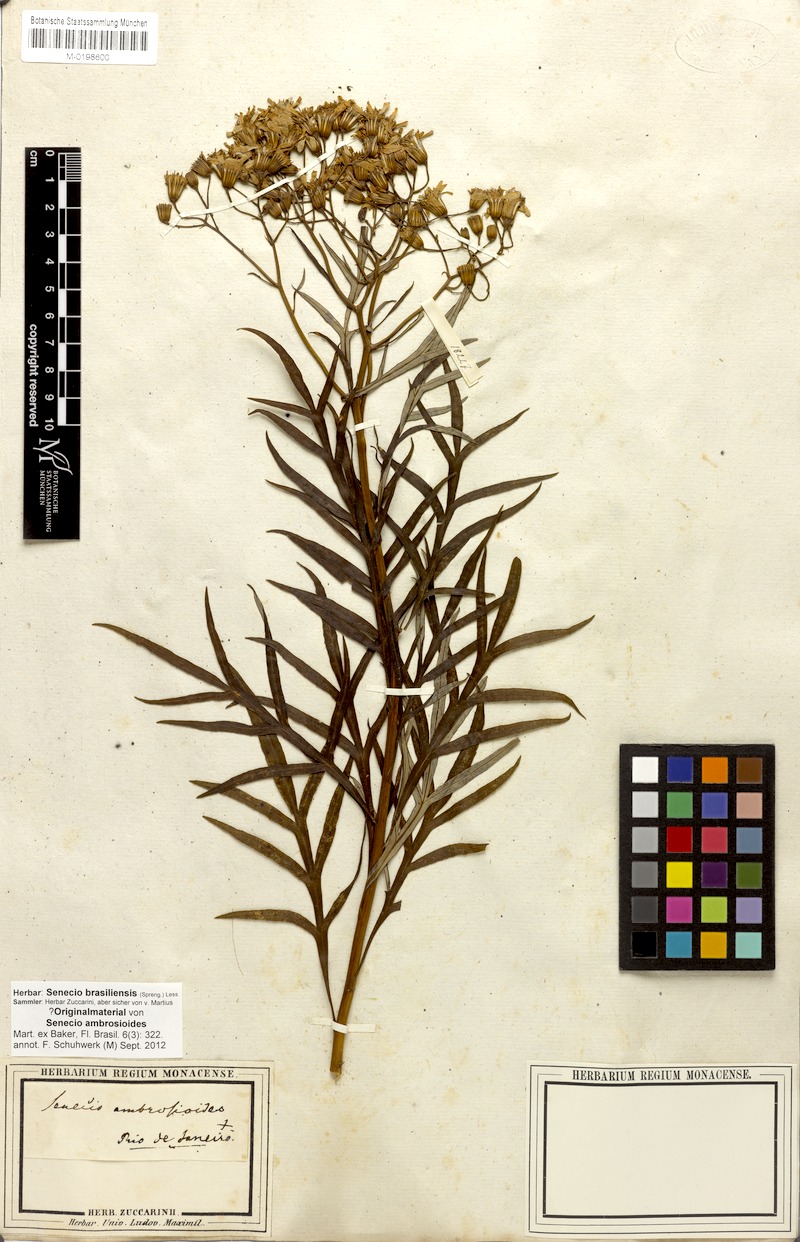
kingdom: Plantae
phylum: Tracheophyta
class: Magnoliopsida
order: Asterales
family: Asteraceae
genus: Senecio
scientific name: Senecio brasiliensis
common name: Hemp-leaf ragwort
